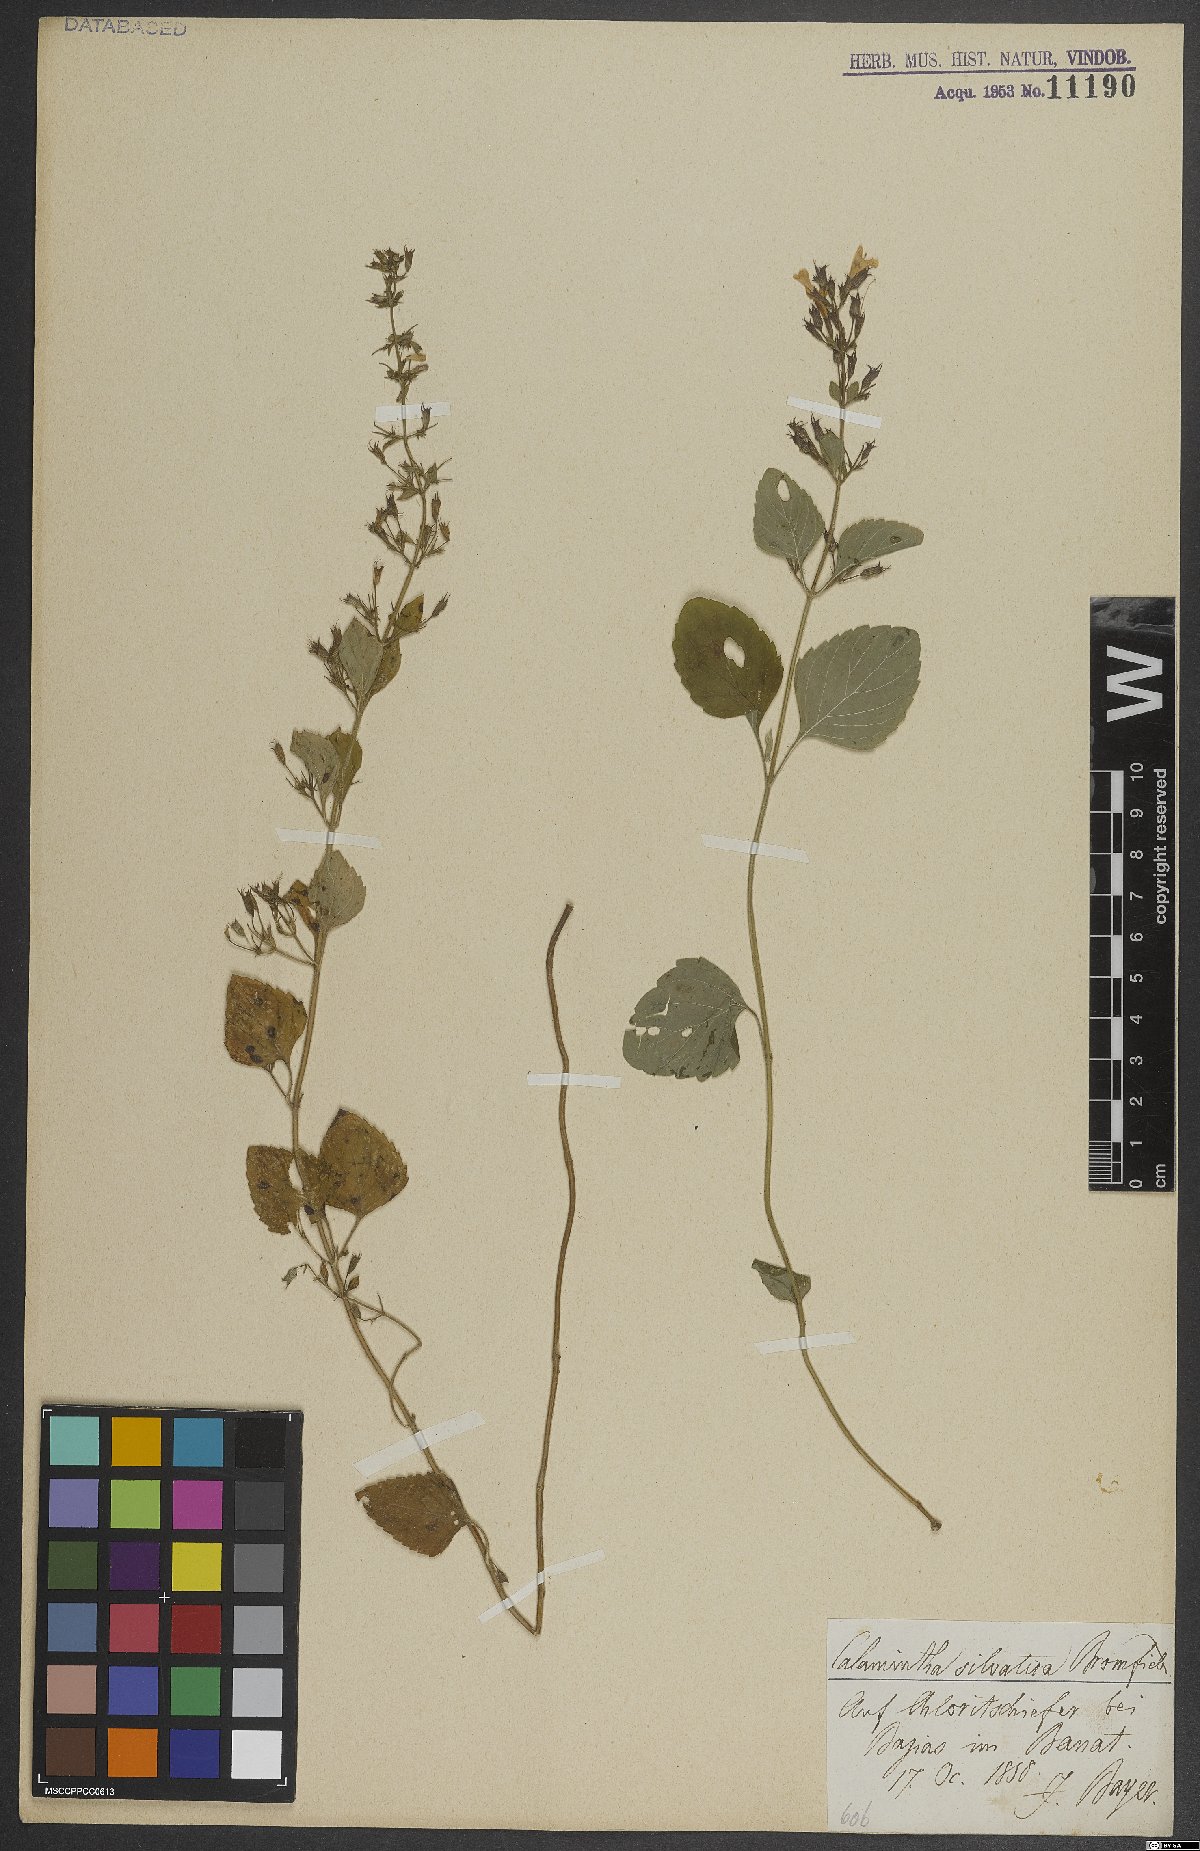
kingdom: Plantae
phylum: Tracheophyta
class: Magnoliopsida
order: Lamiales
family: Lamiaceae
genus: Clinopodium
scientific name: Clinopodium menthifolium
